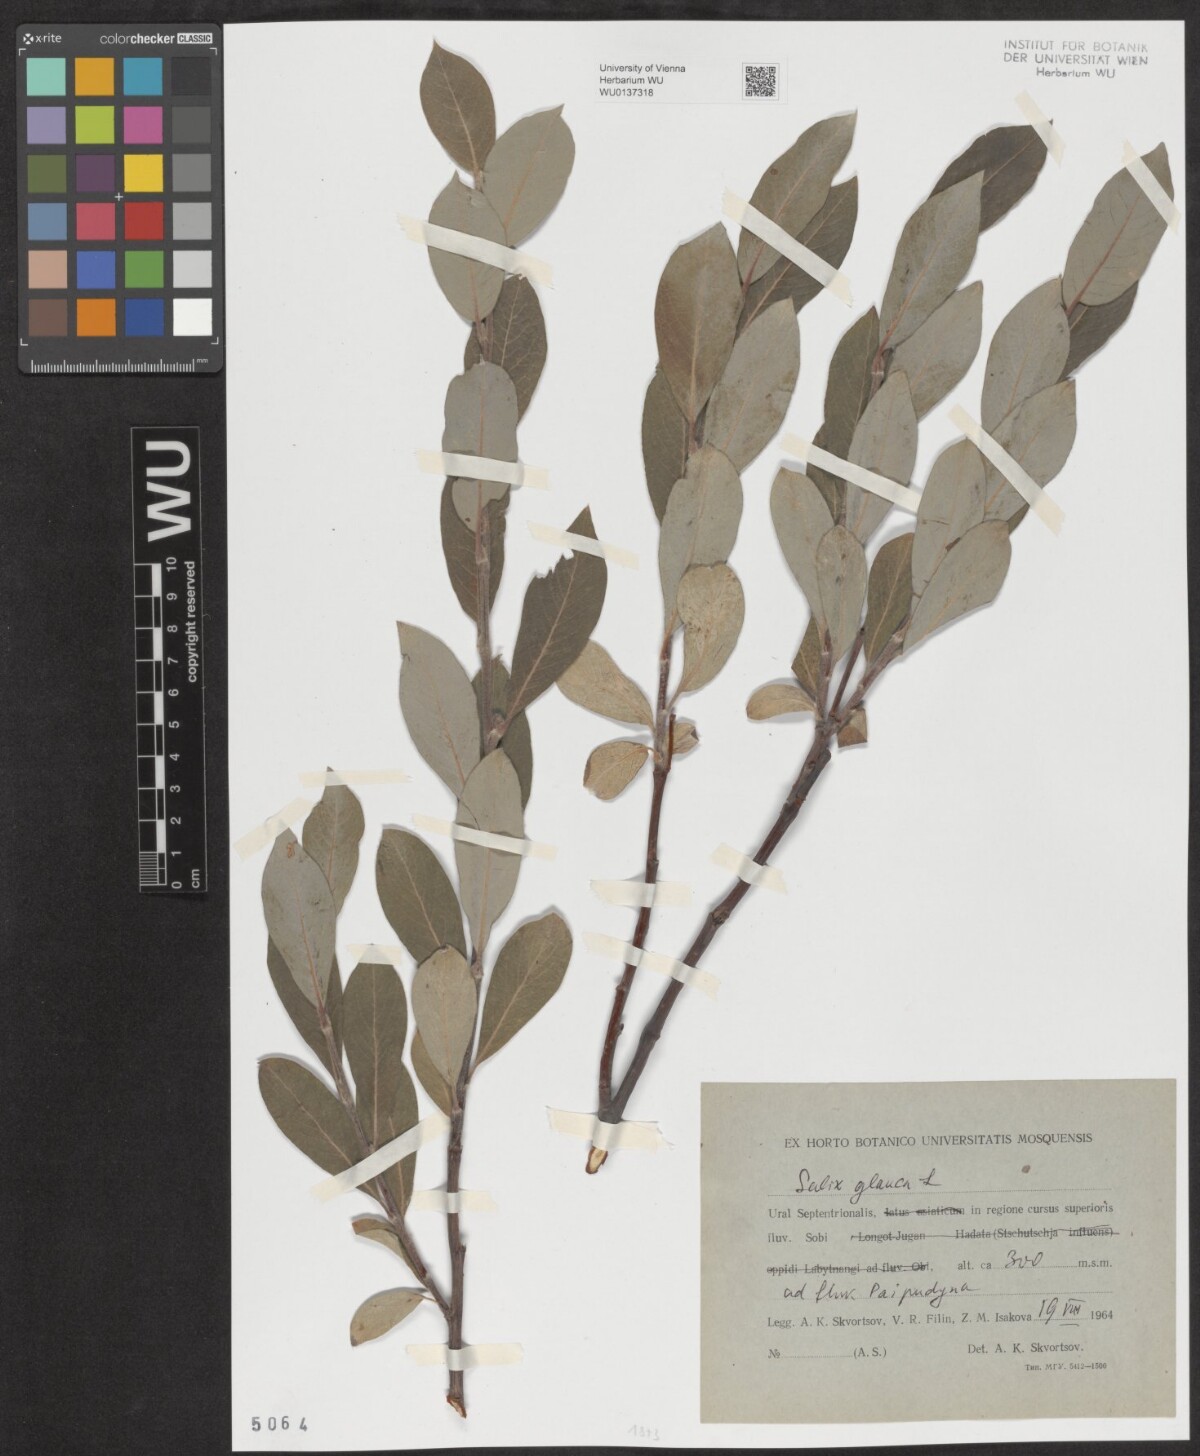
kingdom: Plantae
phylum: Tracheophyta
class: Magnoliopsida
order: Malpighiales
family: Salicaceae
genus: Salix
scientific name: Salix glauca
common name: Glaucous willow
